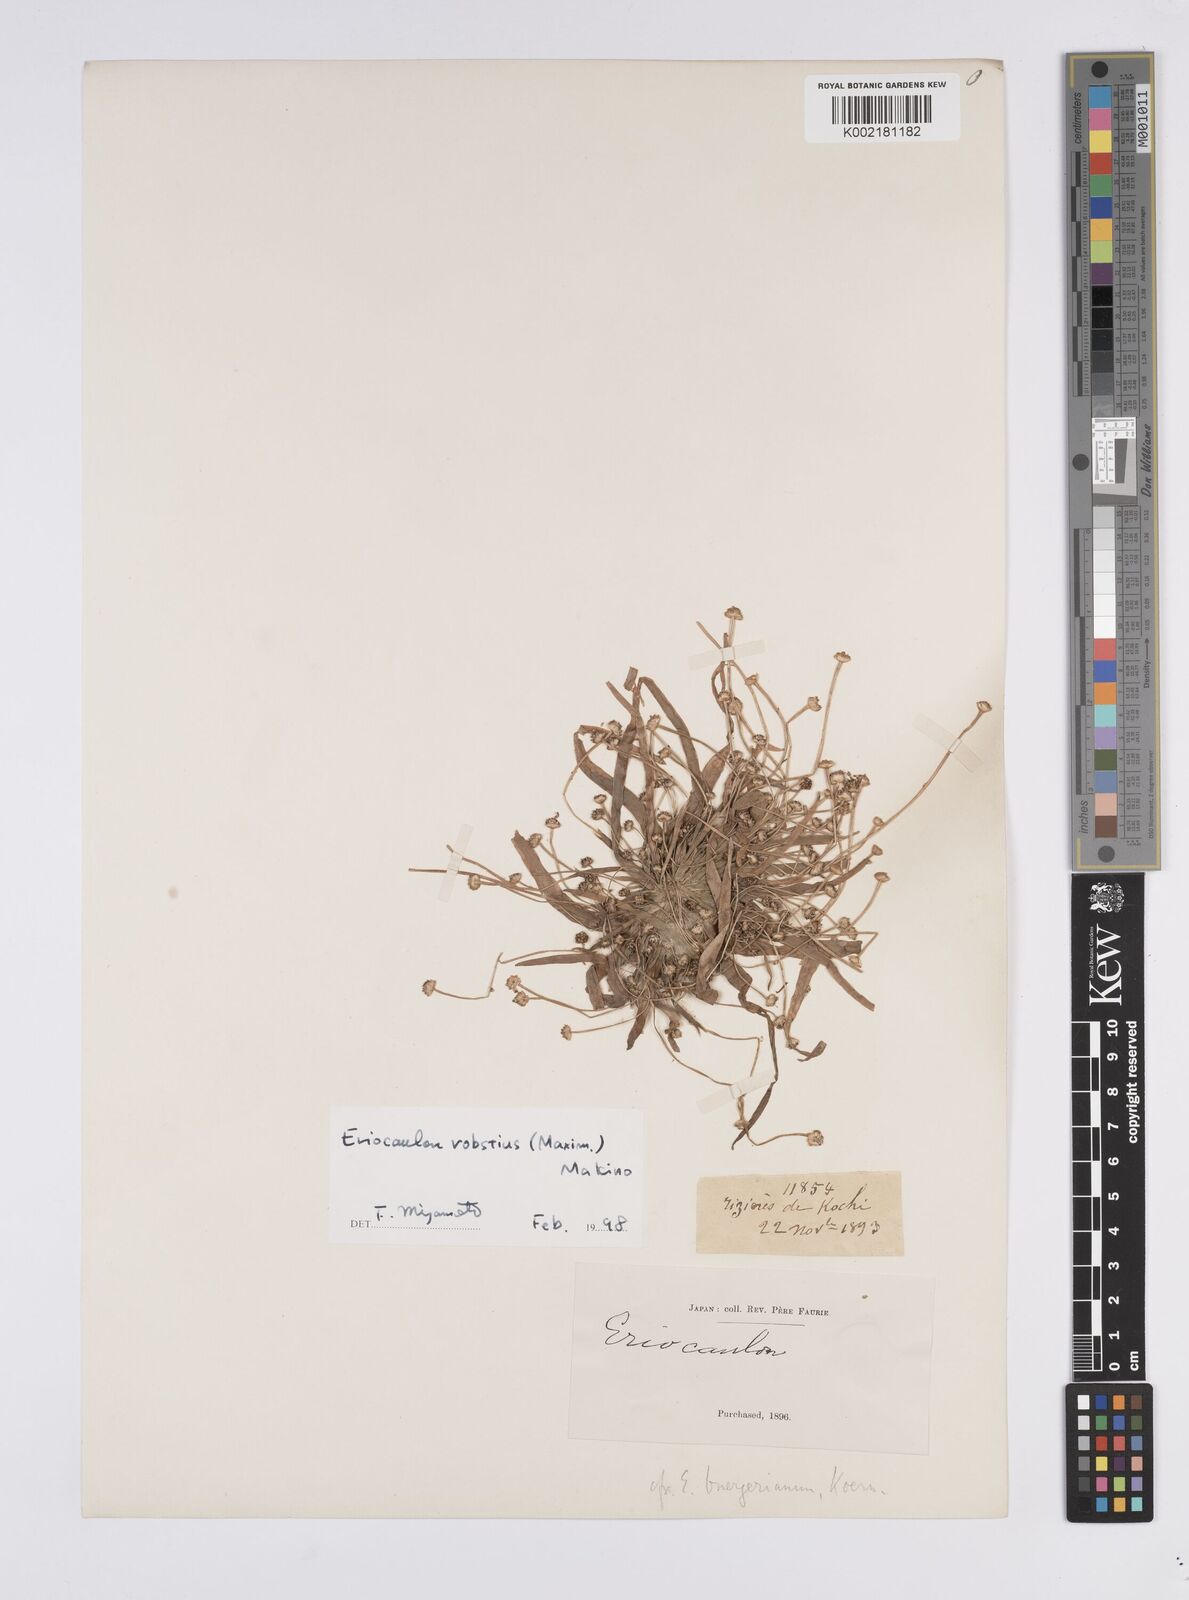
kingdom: Plantae
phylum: Tracheophyta
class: Liliopsida
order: Poales
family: Eriocaulaceae
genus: Eriocaulon
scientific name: Eriocaulon alpestre
